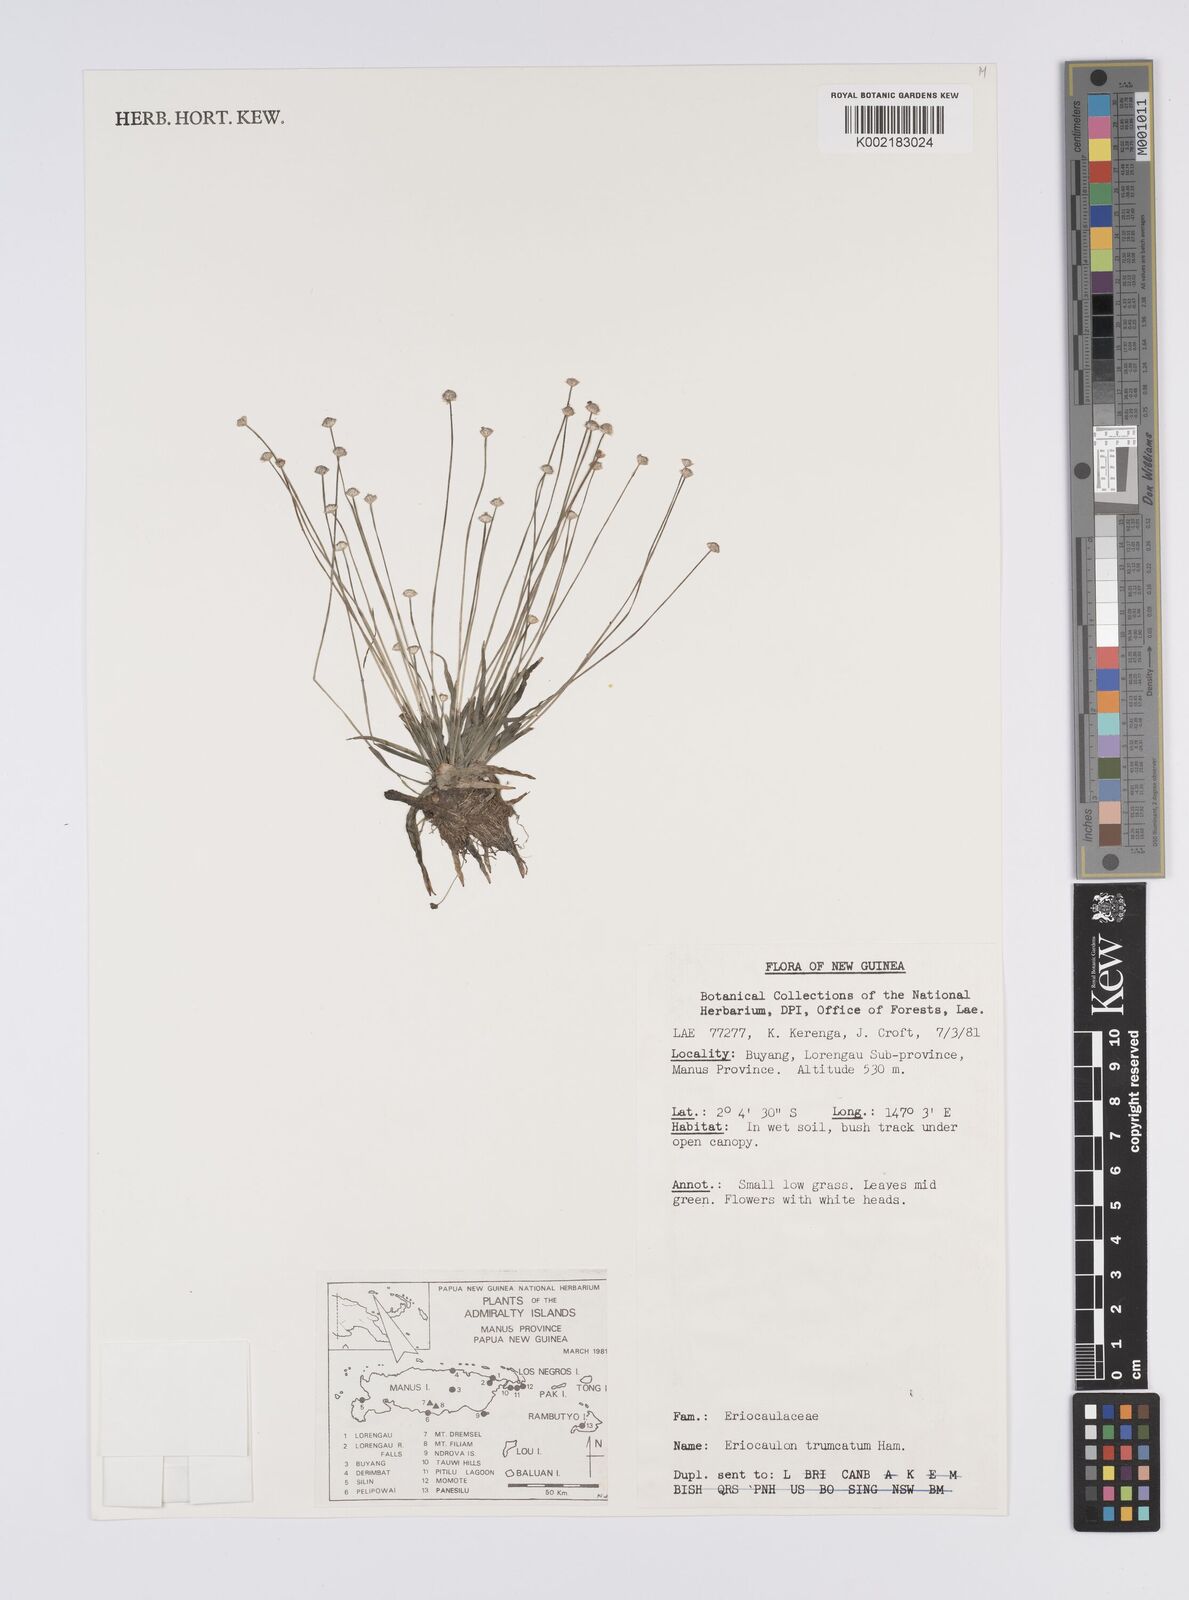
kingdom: Plantae
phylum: Tracheophyta
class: Liliopsida
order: Poales
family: Eriocaulaceae
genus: Eriocaulon
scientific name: Eriocaulon
